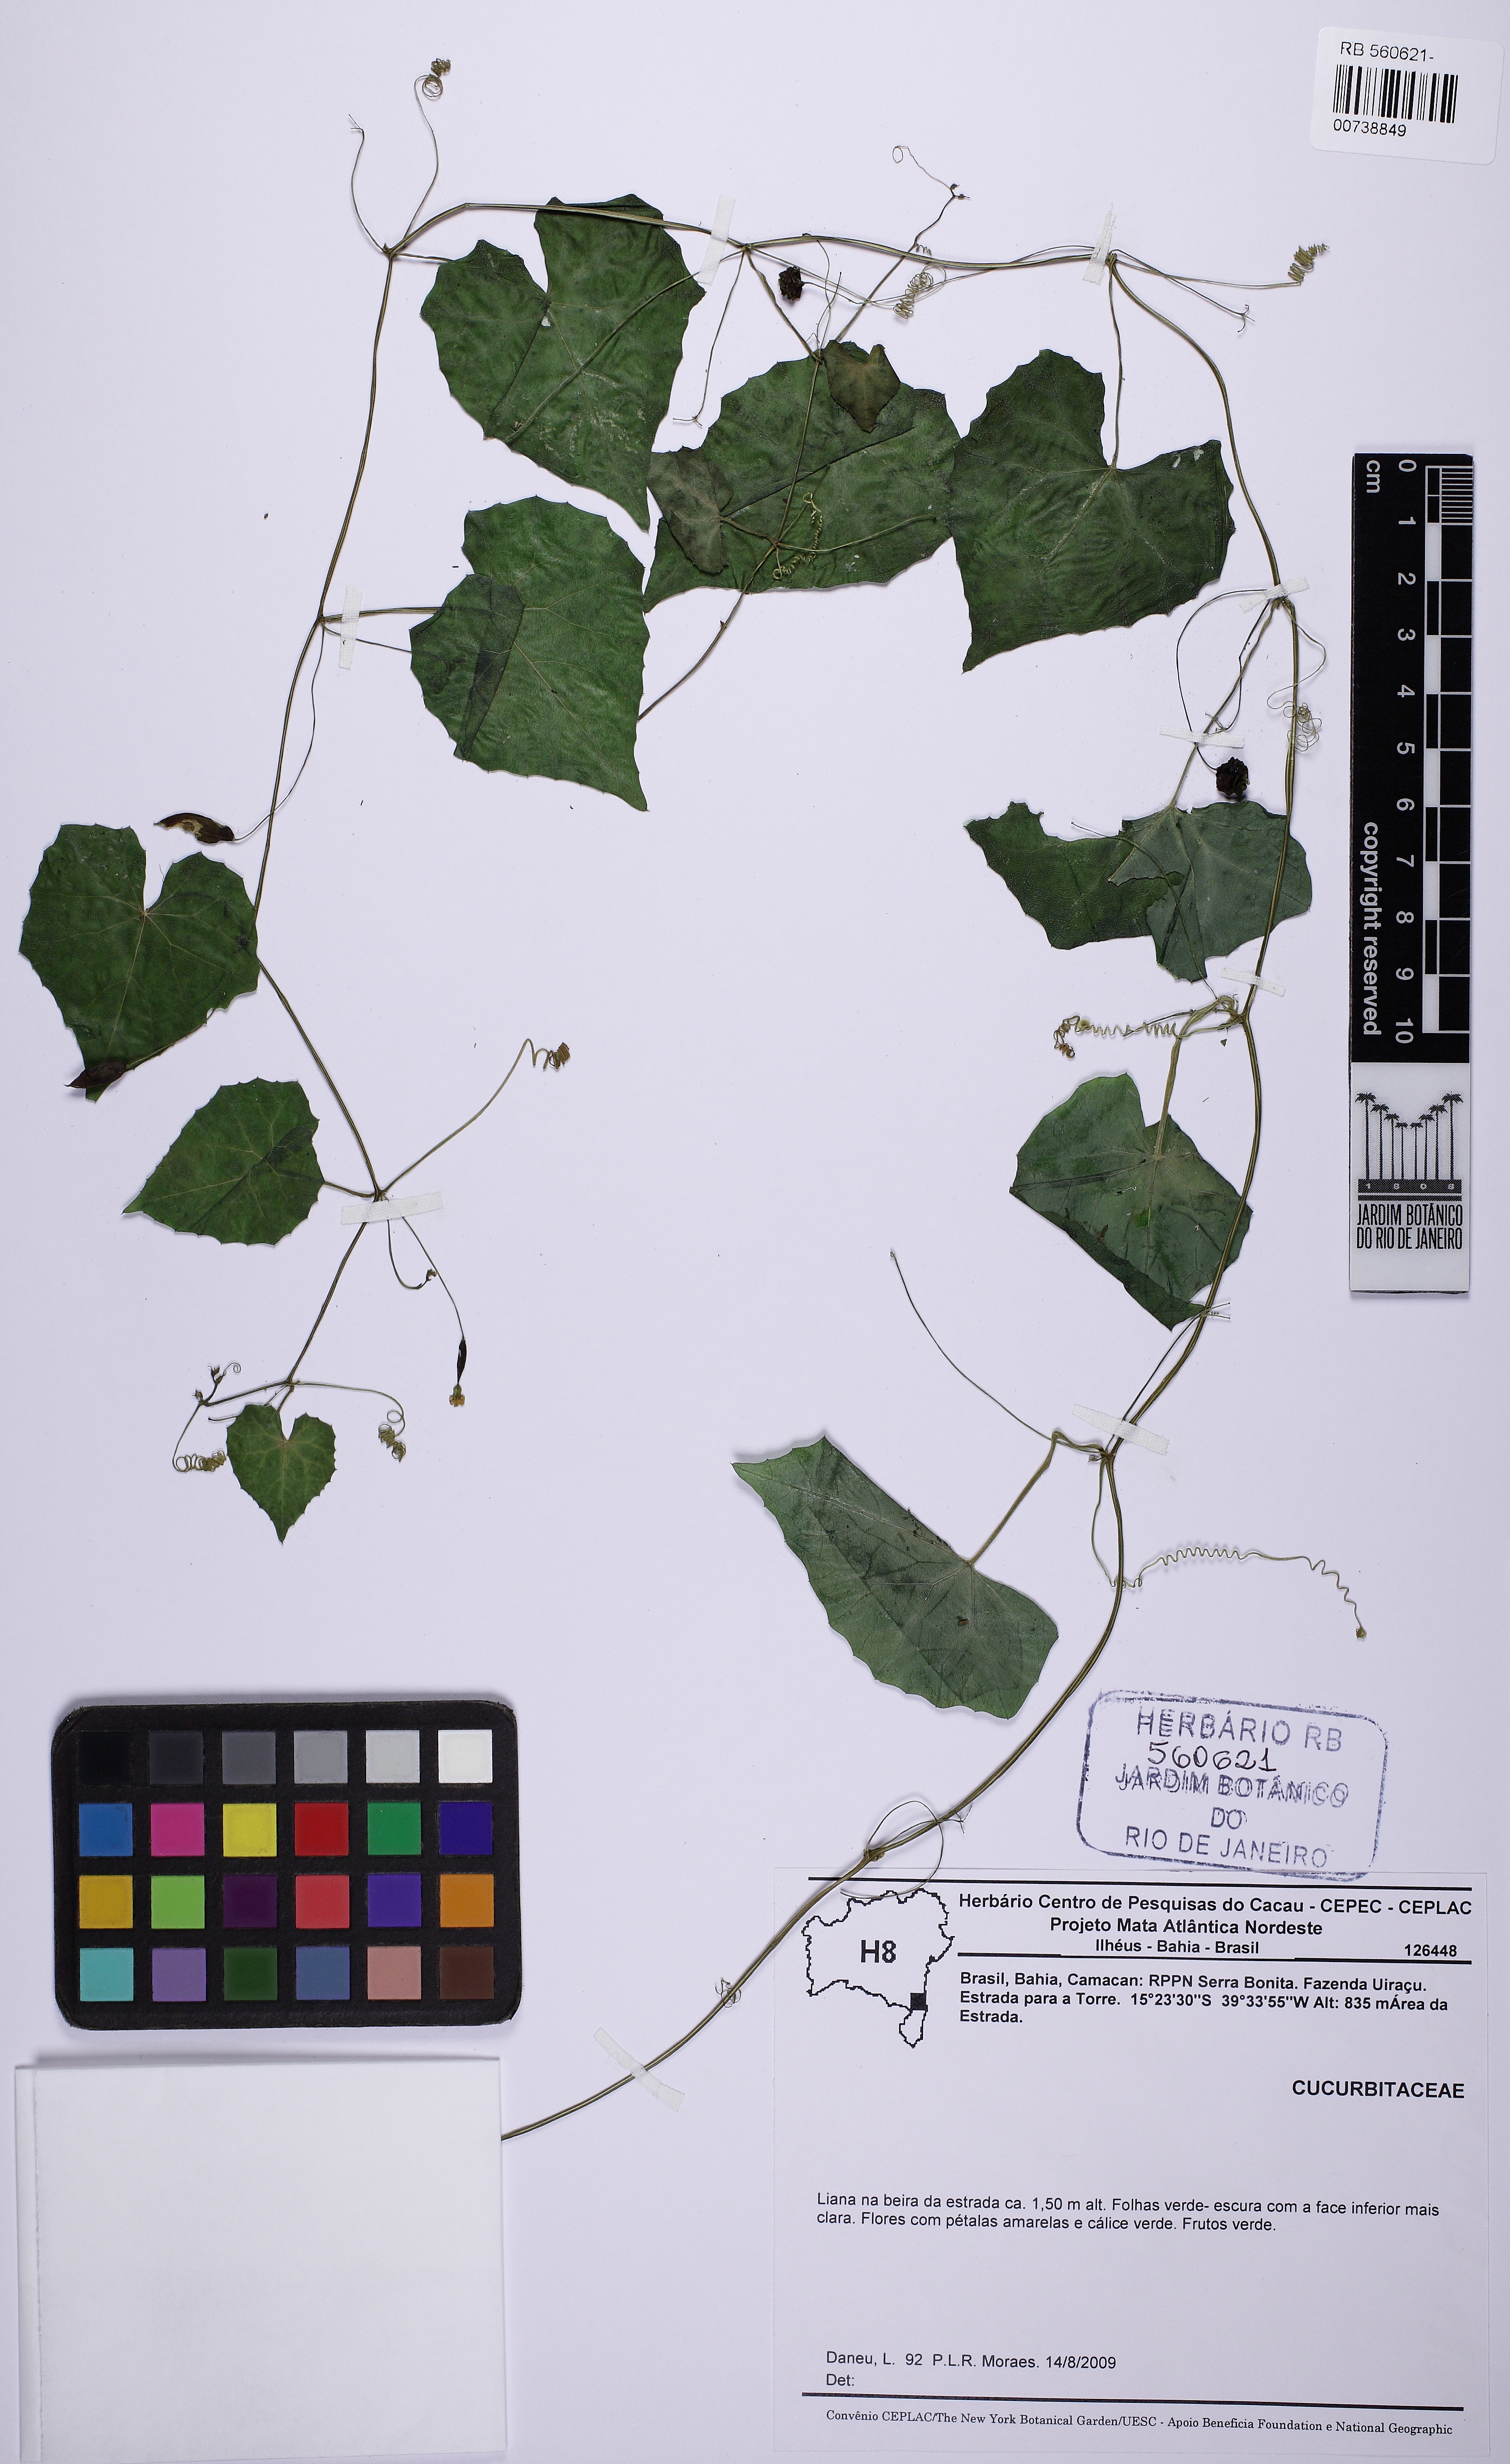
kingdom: Plantae
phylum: Tracheophyta
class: Magnoliopsida
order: Cucurbitales
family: Cucurbitaceae
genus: Melothria
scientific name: Melothria pendula
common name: Creeping-cucumber
